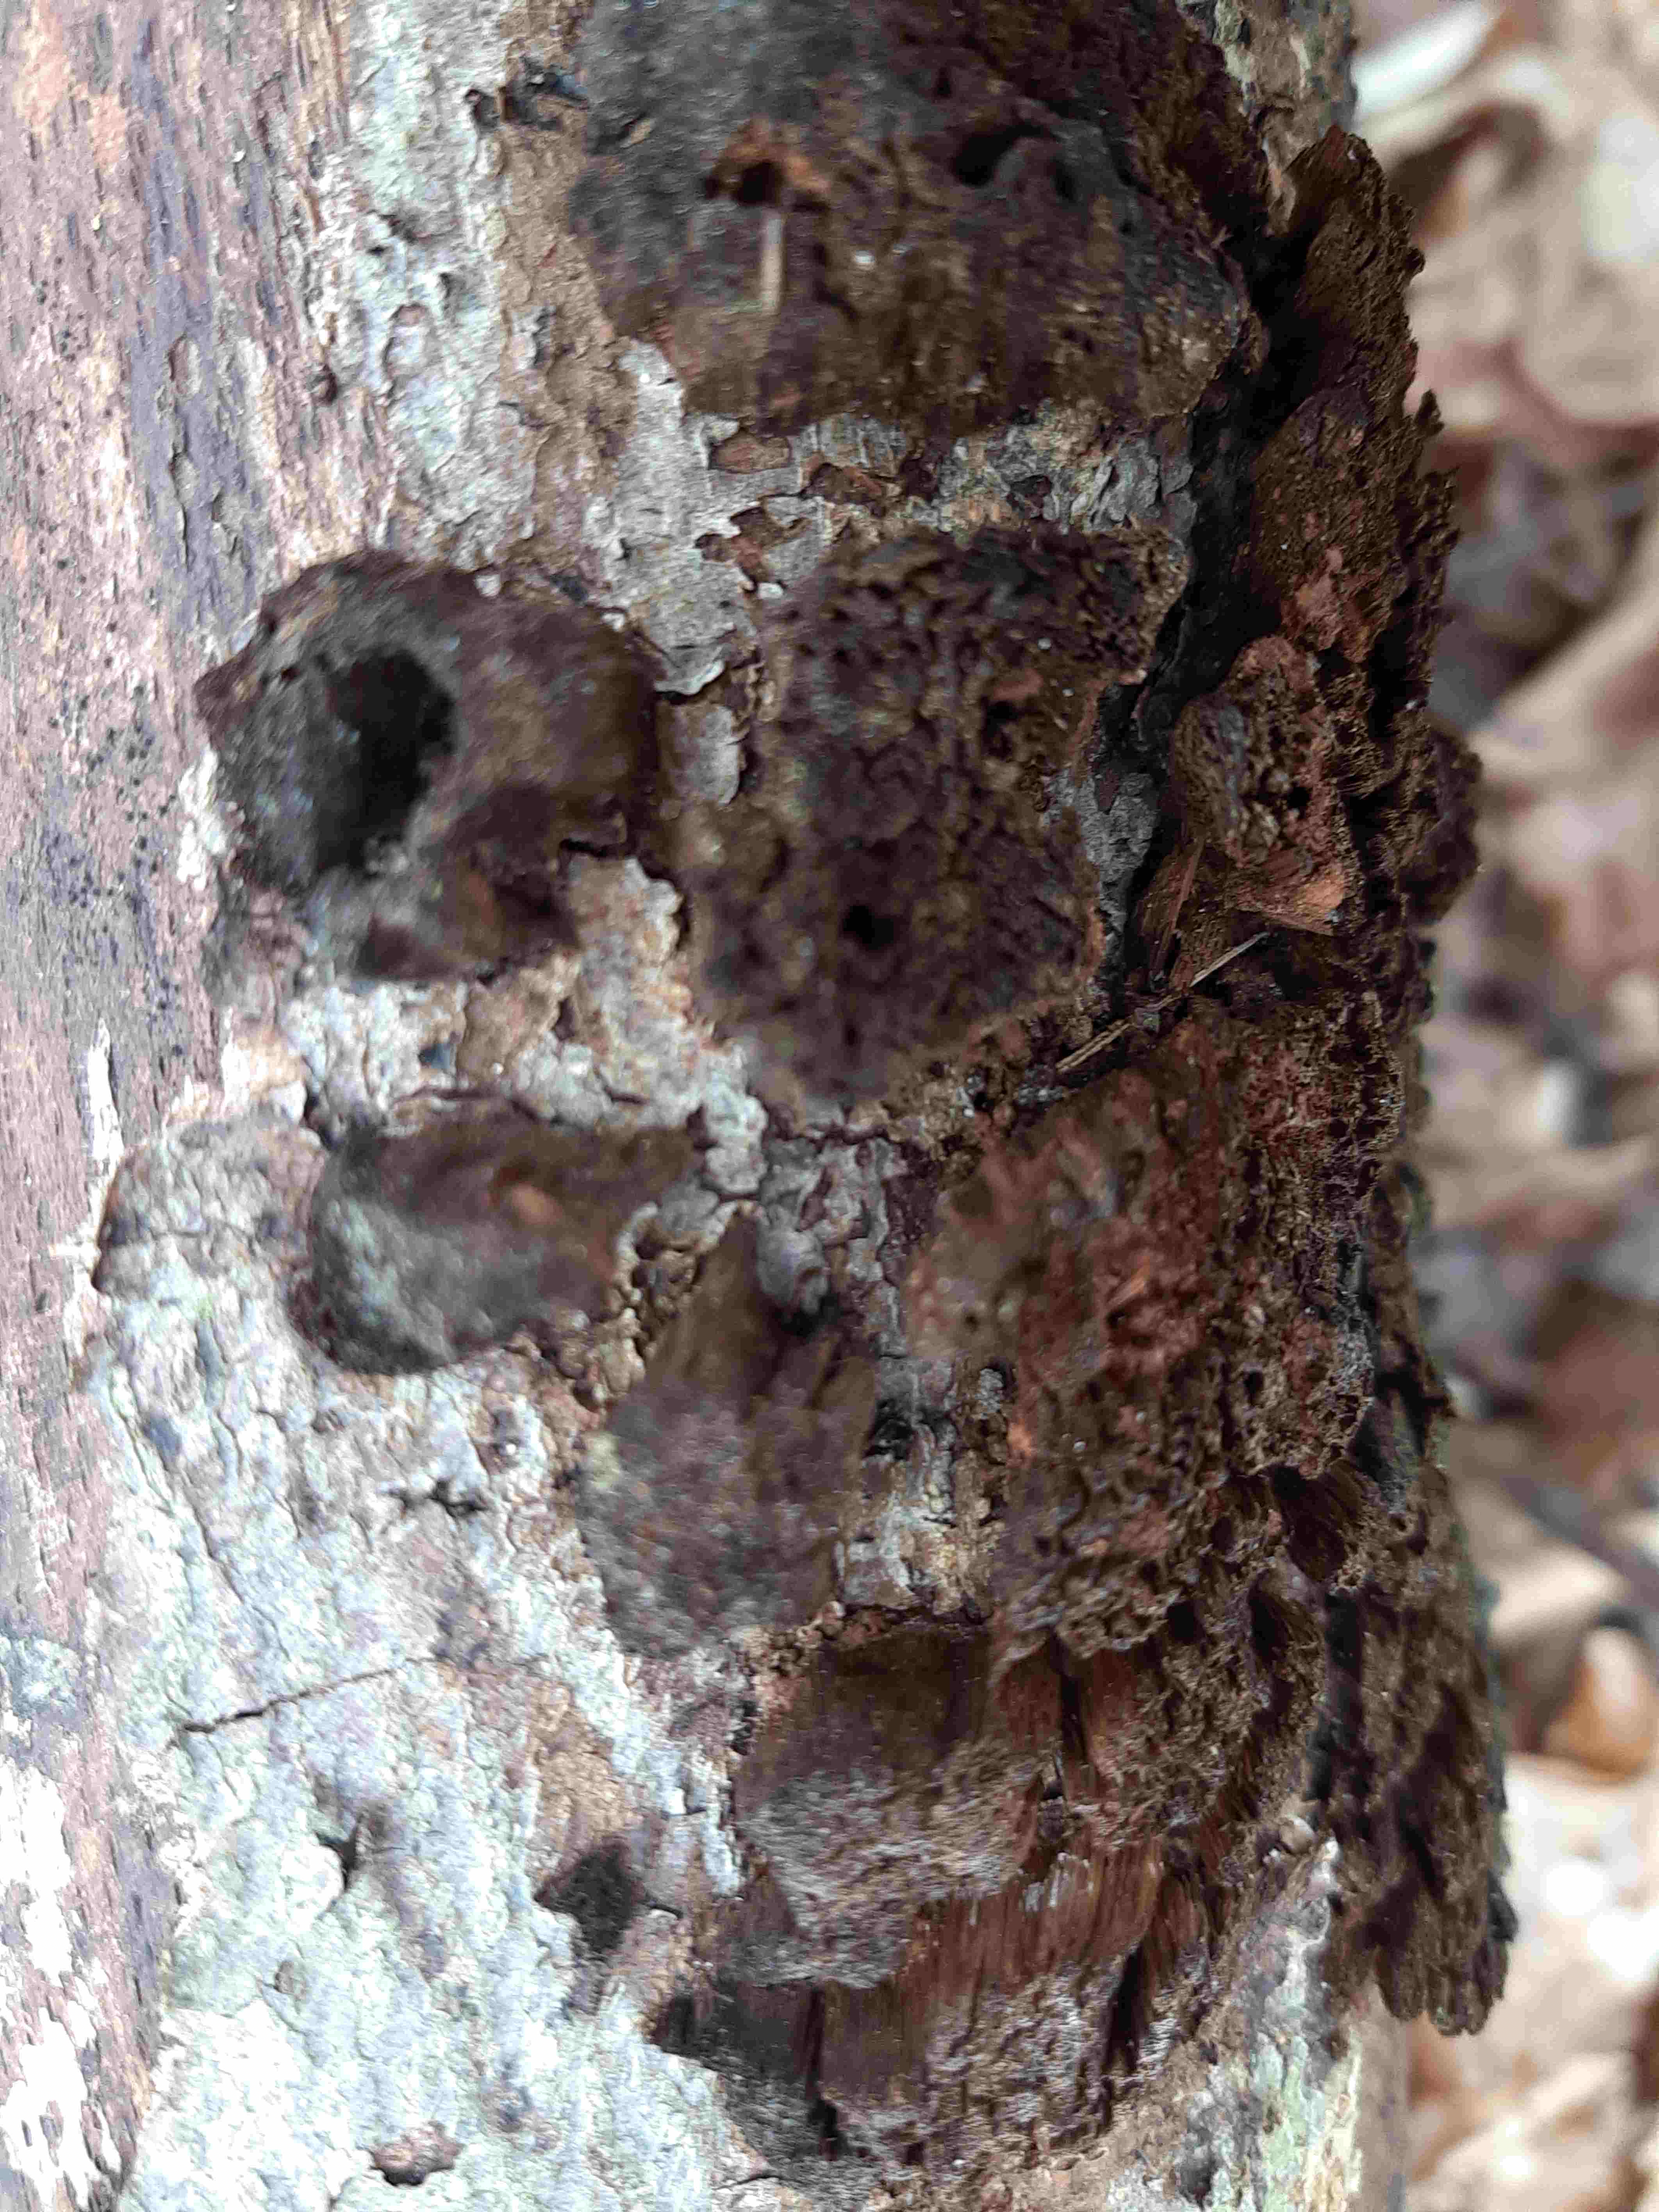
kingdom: Fungi
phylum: Basidiomycota
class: Agaricomycetes
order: Hymenochaetales
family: Hymenochaetaceae
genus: Mensularia
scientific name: Mensularia nodulosa
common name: bøge-spejlporesvamp
